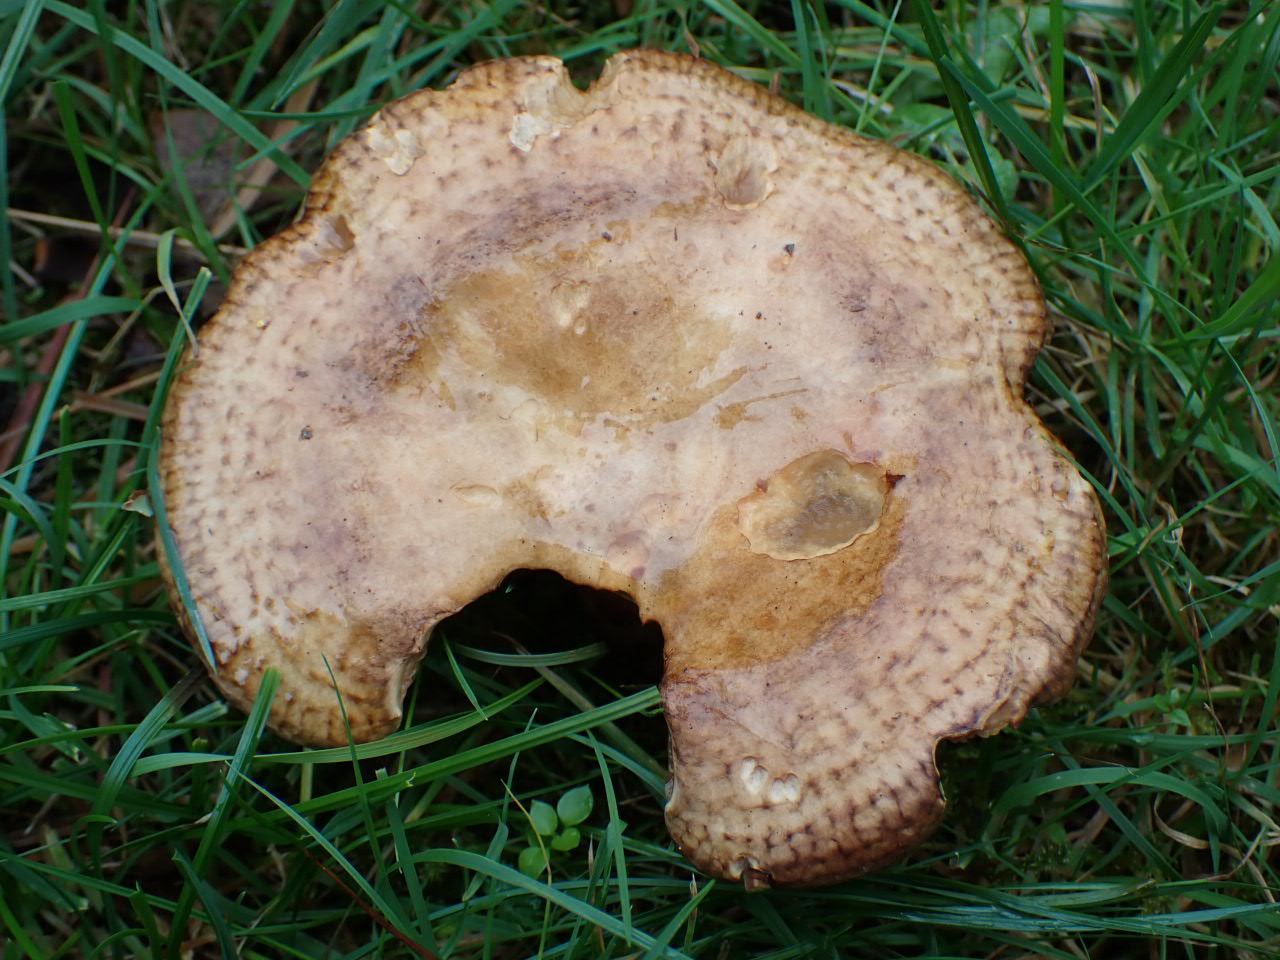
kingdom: Fungi
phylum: Basidiomycota
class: Agaricomycetes
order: Boletales
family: Paxillaceae
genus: Paxillus
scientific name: Paxillus
